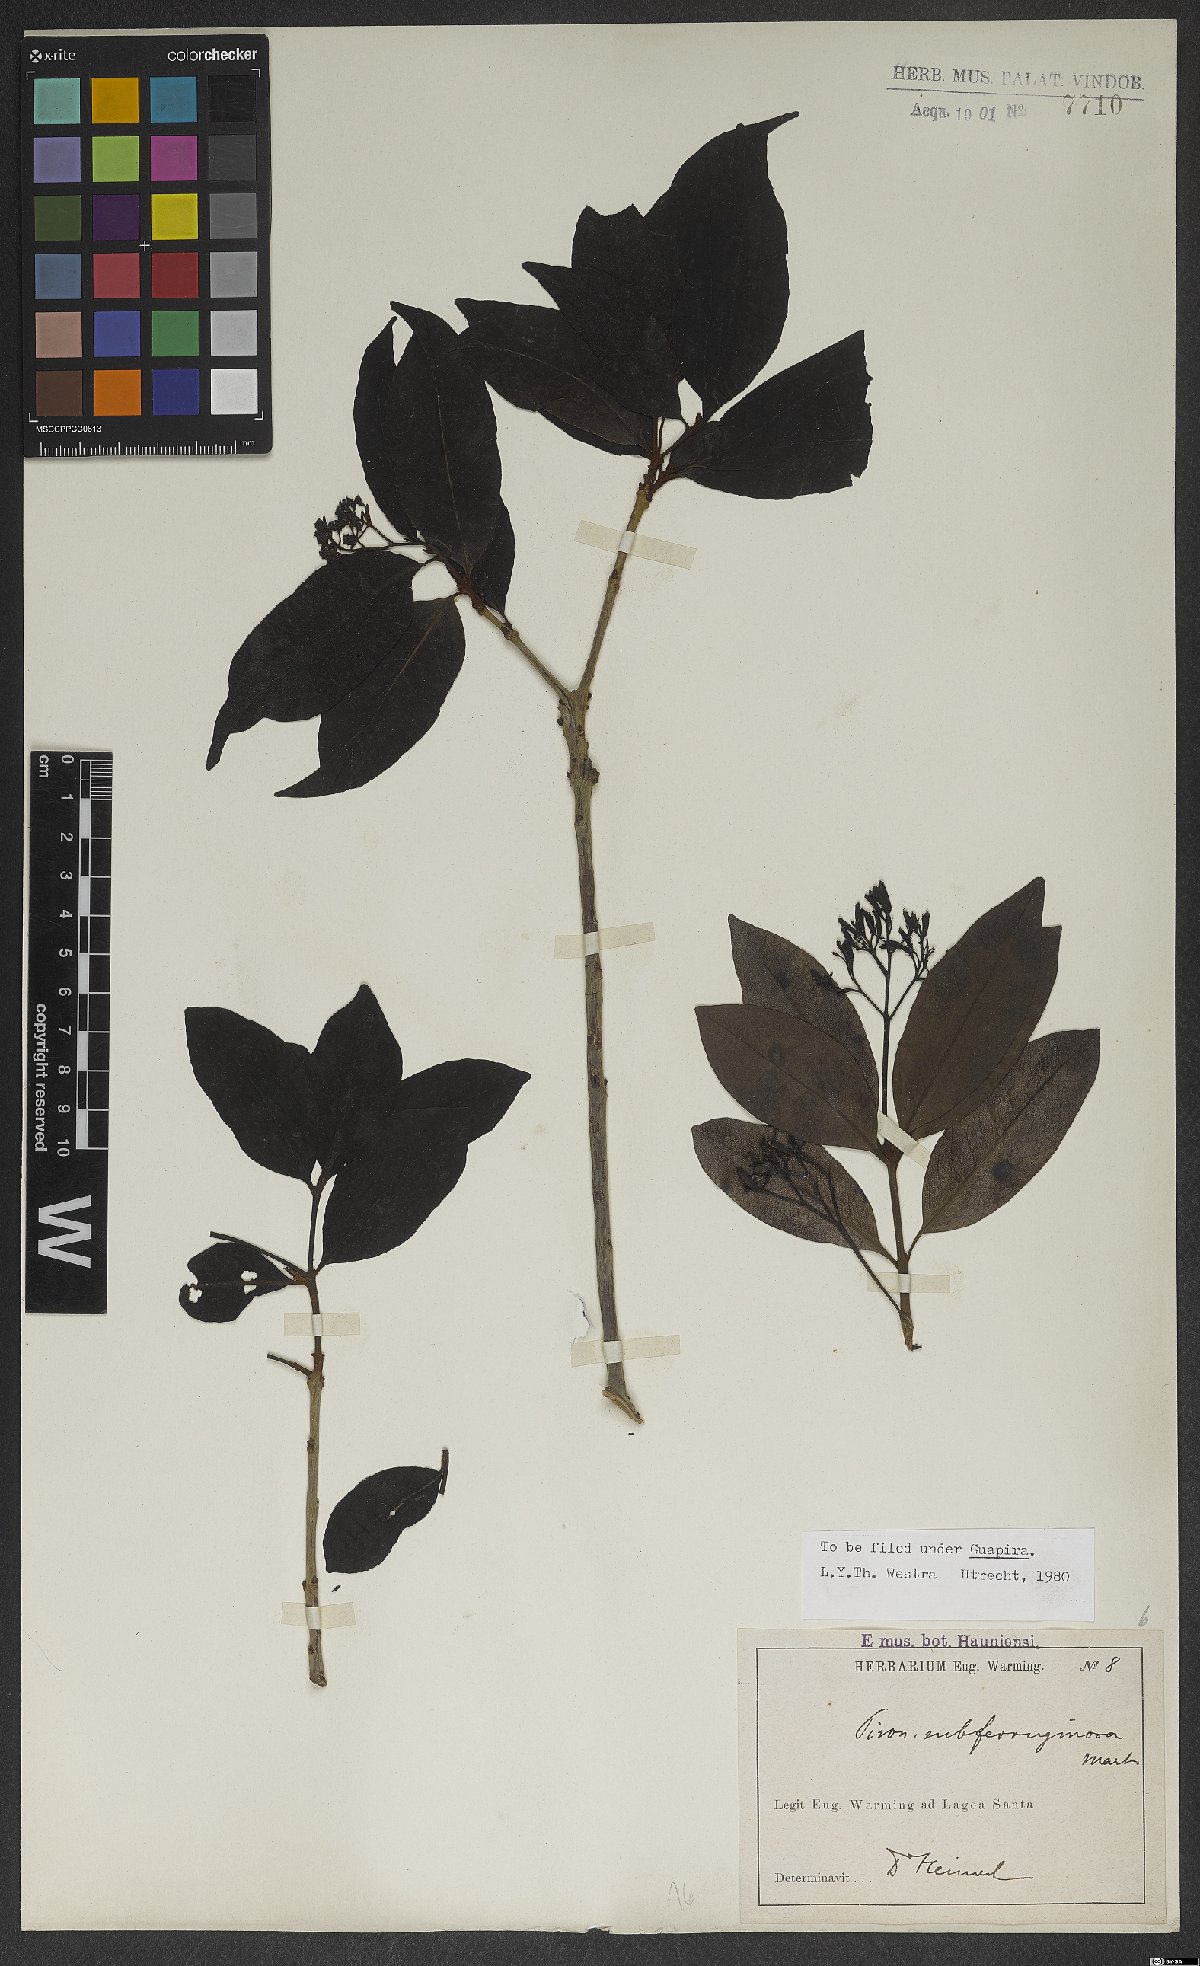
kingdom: Plantae
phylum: Tracheophyta
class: Magnoliopsida
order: Caryophyllales
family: Nyctaginaceae
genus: Guapira
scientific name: Guapira graciliflora
